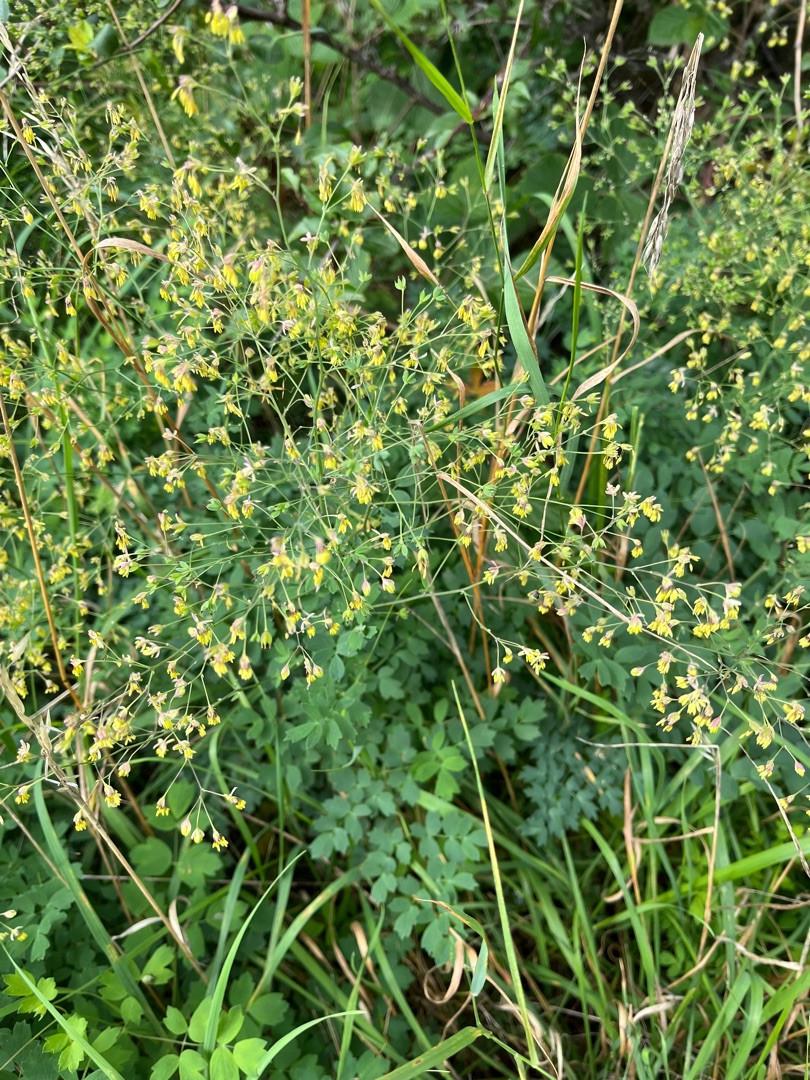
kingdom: Plantae
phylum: Tracheophyta
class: Magnoliopsida
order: Ranunculales
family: Ranunculaceae
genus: Thalictrum
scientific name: Thalictrum minus
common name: Liden frøstjerne
